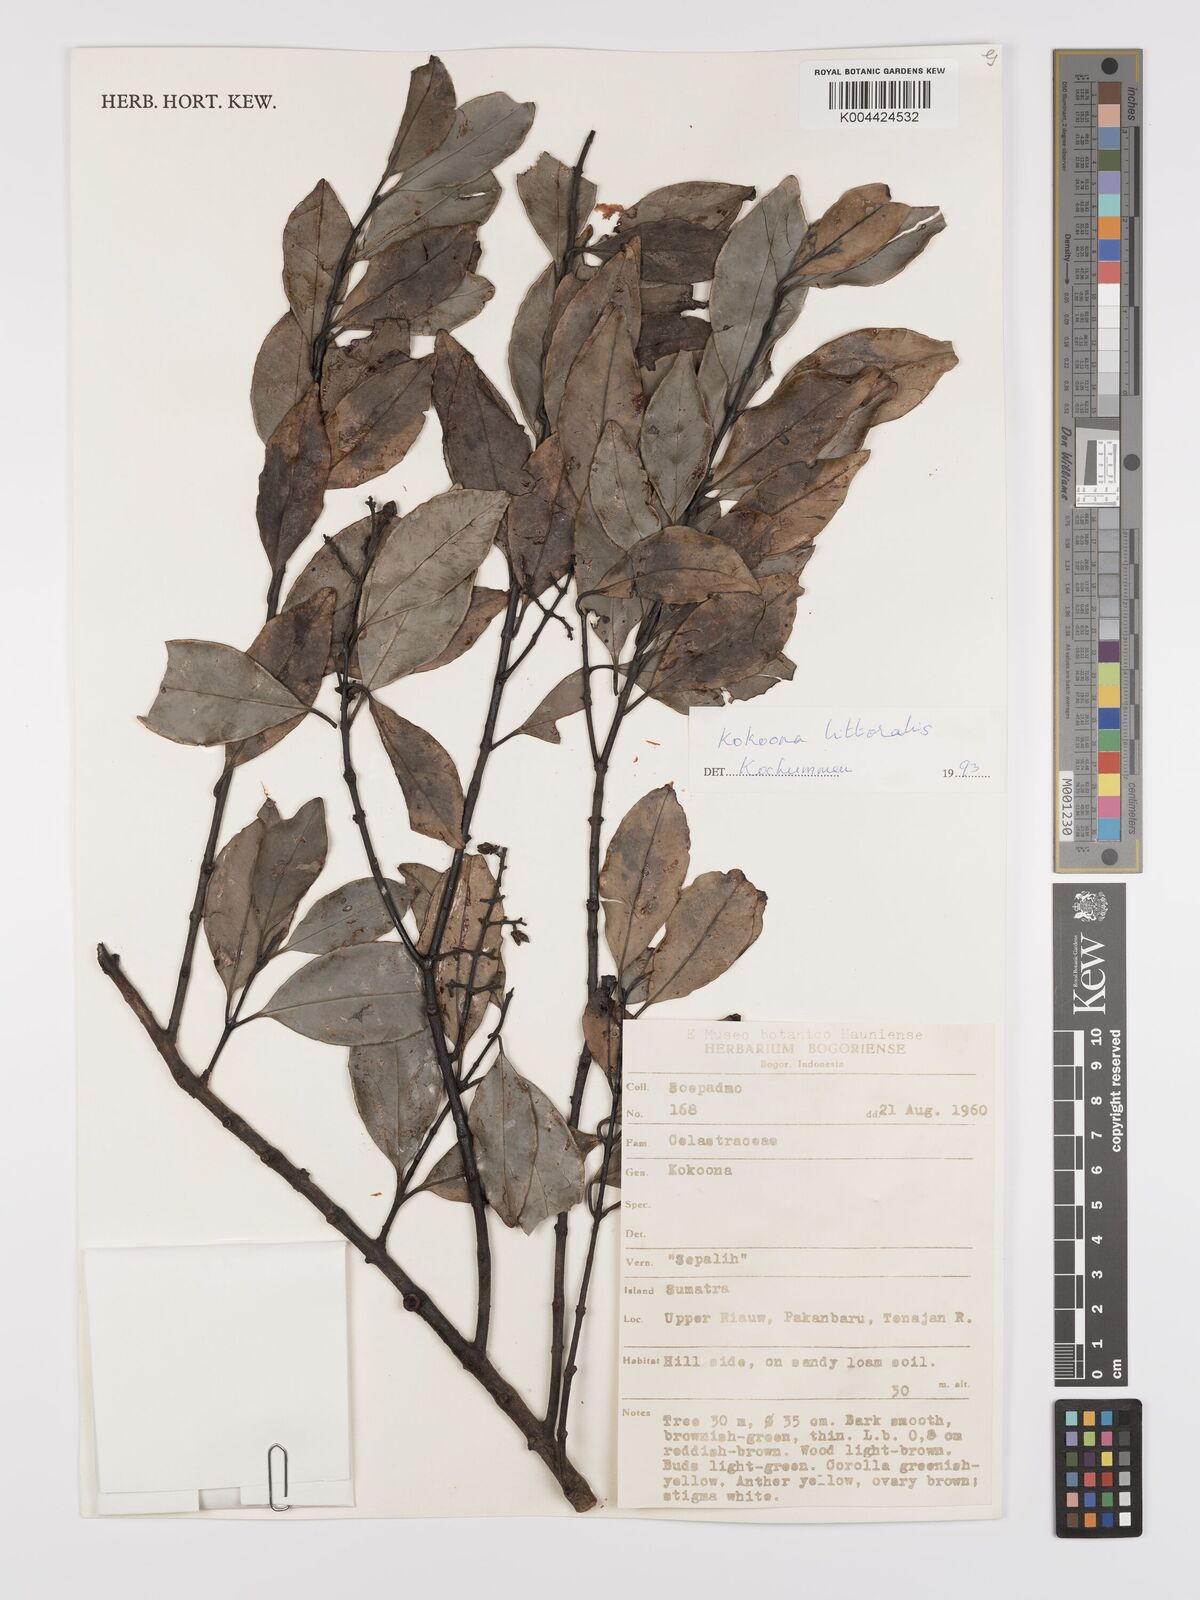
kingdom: Plantae
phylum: Tracheophyta
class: Magnoliopsida
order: Celastrales
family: Celastraceae
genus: Kokoona
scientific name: Kokoona littoralis
